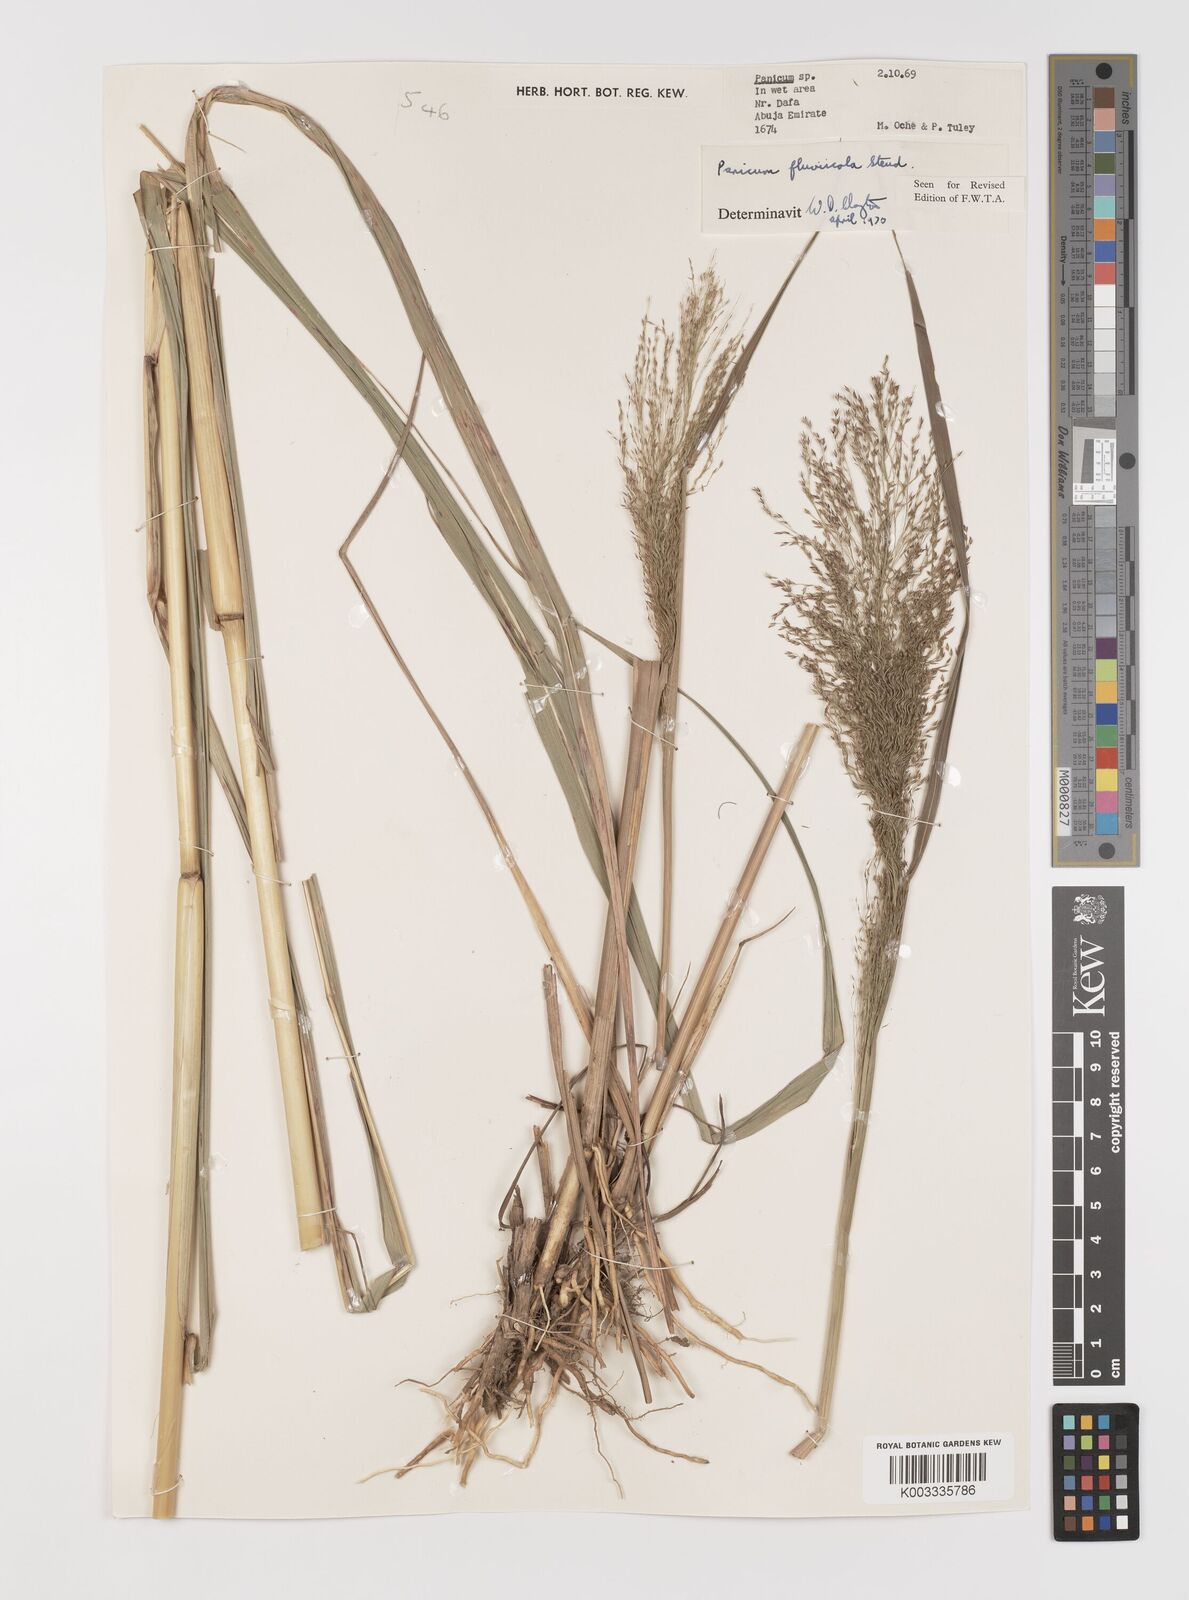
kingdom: Plantae
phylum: Tracheophyta
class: Liliopsida
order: Poales
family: Poaceae
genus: Panicum
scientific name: Panicum fluviicola
